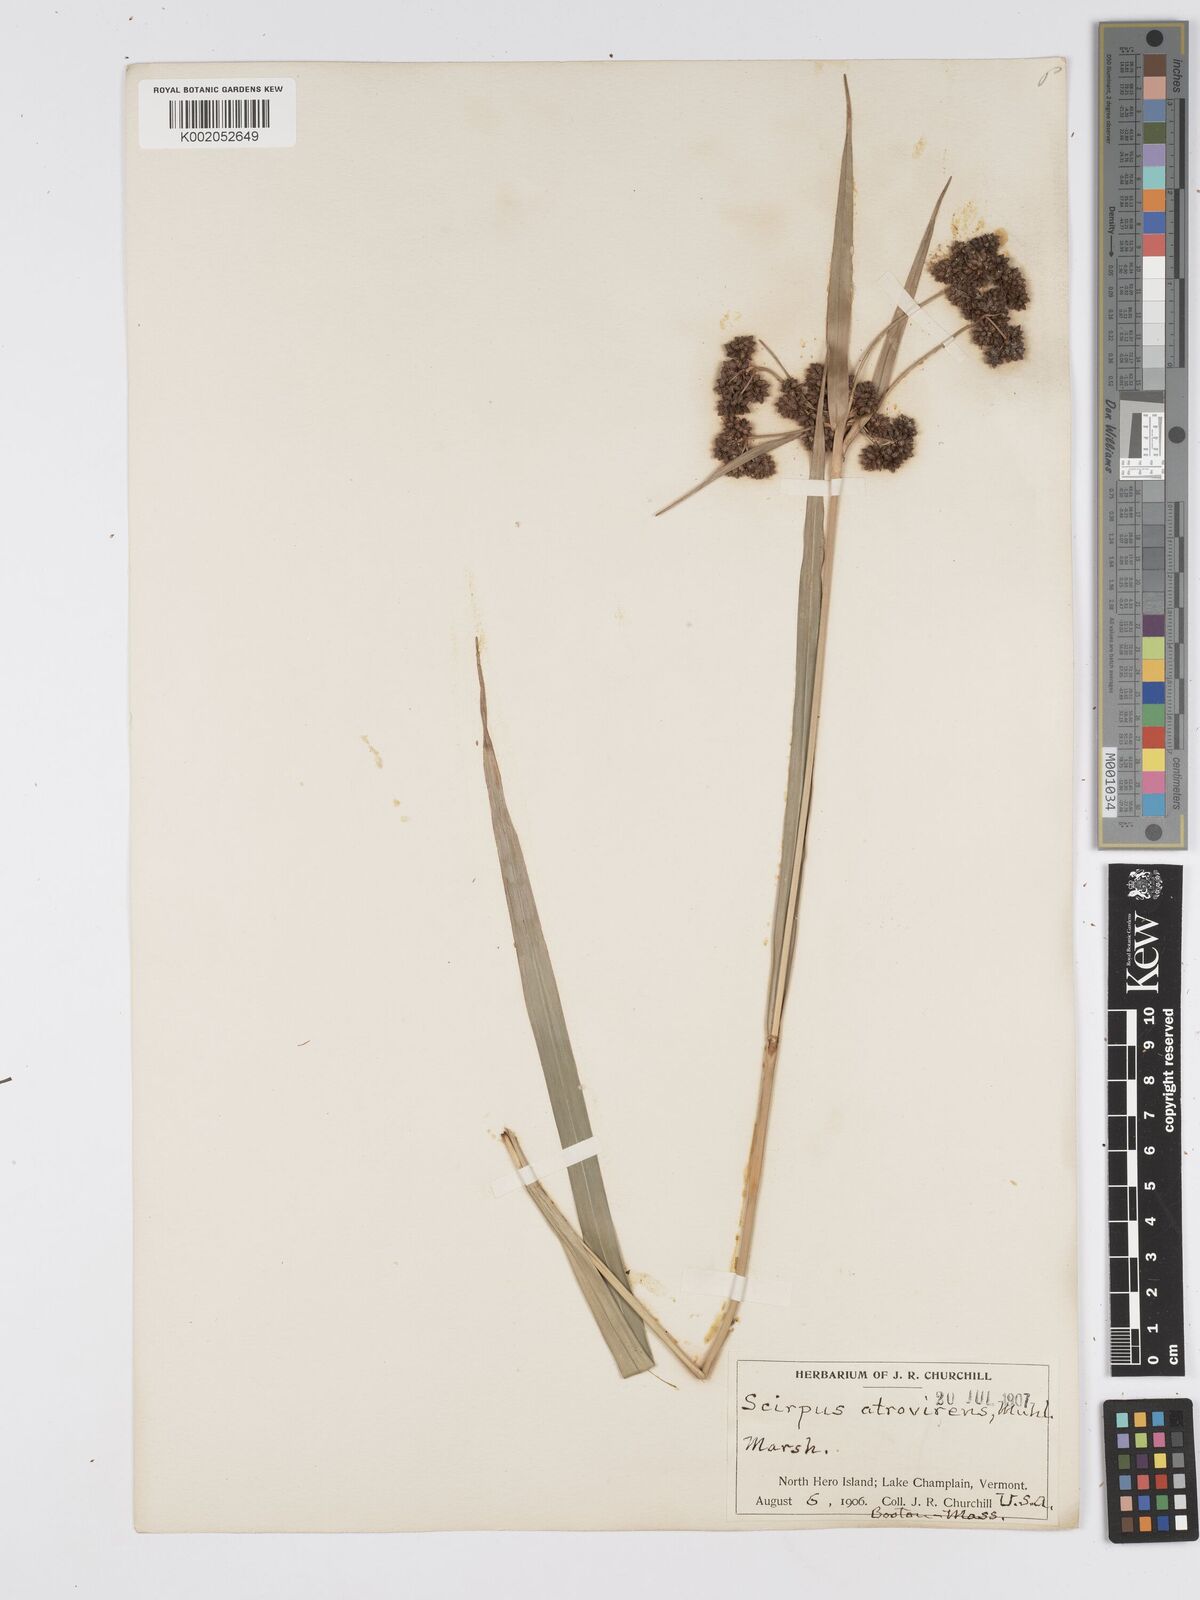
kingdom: Plantae
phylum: Tracheophyta
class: Liliopsida
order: Poales
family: Cyperaceae
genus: Scirpus
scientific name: Scirpus atrovirens
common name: Black bulrush
